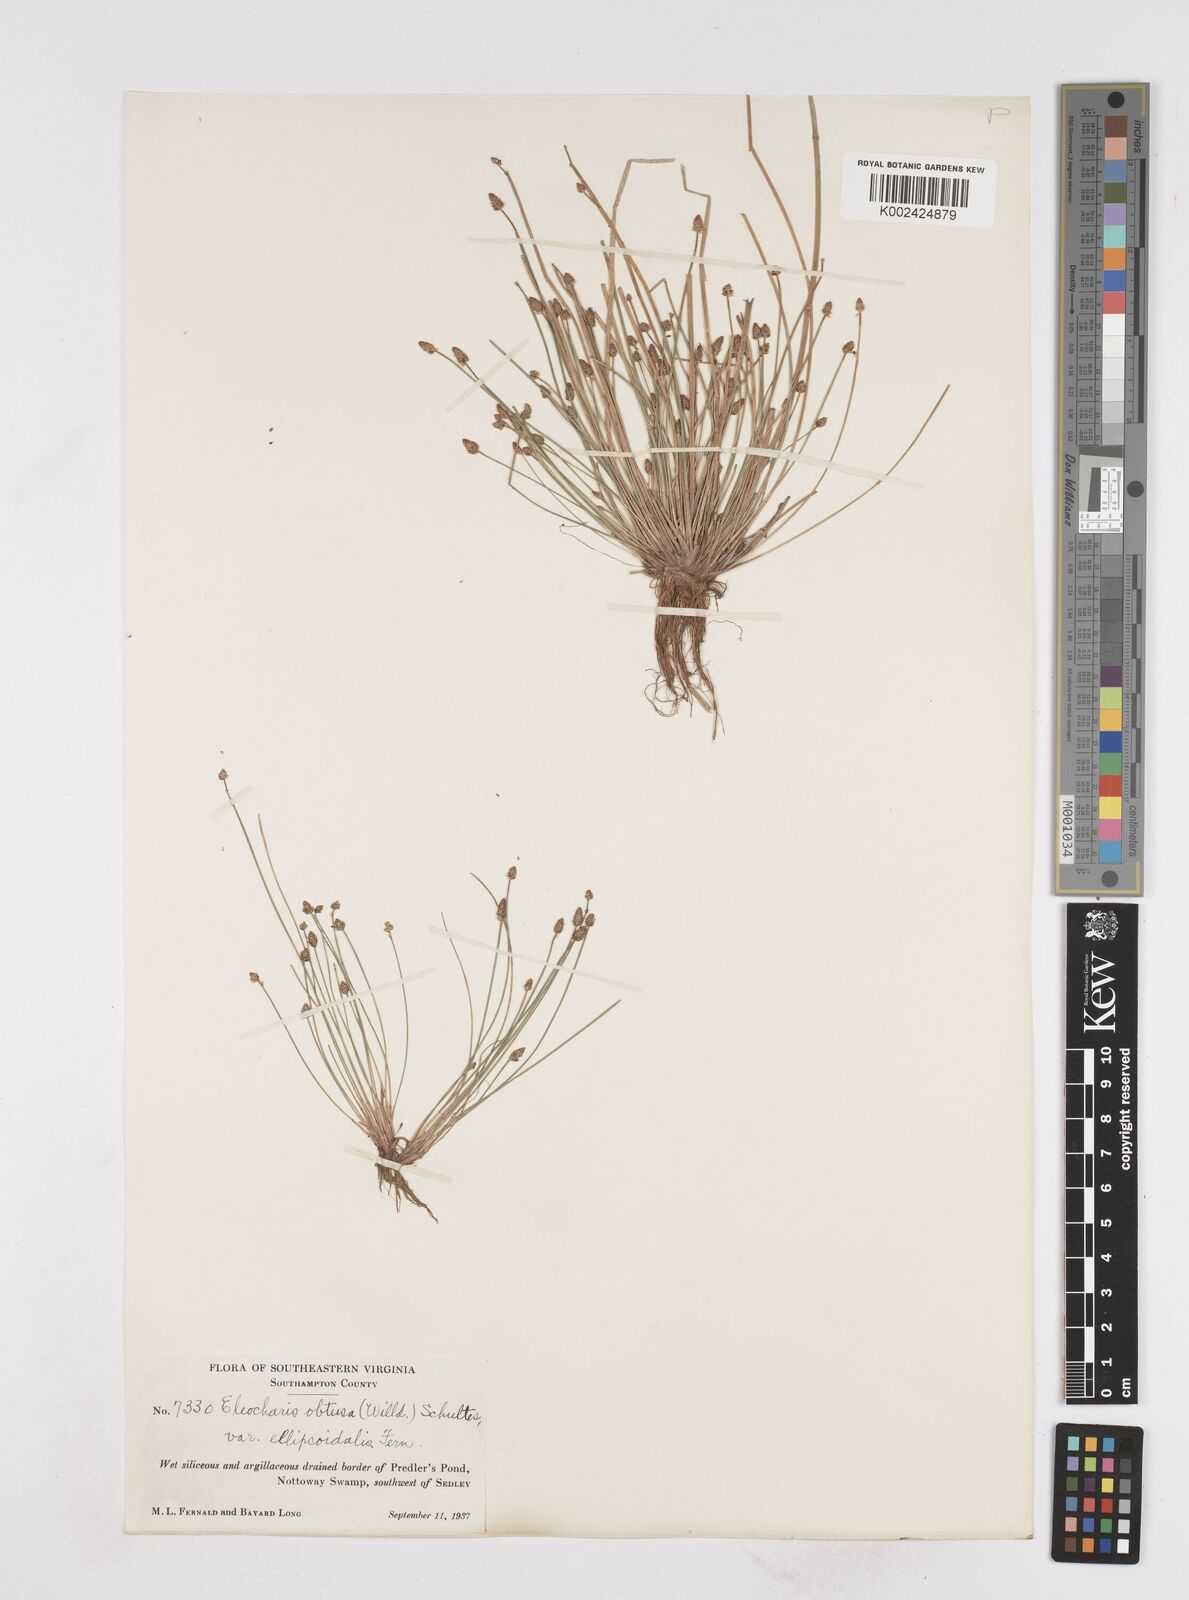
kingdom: Plantae
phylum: Tracheophyta
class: Liliopsida
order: Poales
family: Cyperaceae
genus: Eleocharis
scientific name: Eleocharis obtusa
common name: Blunt spikerush
